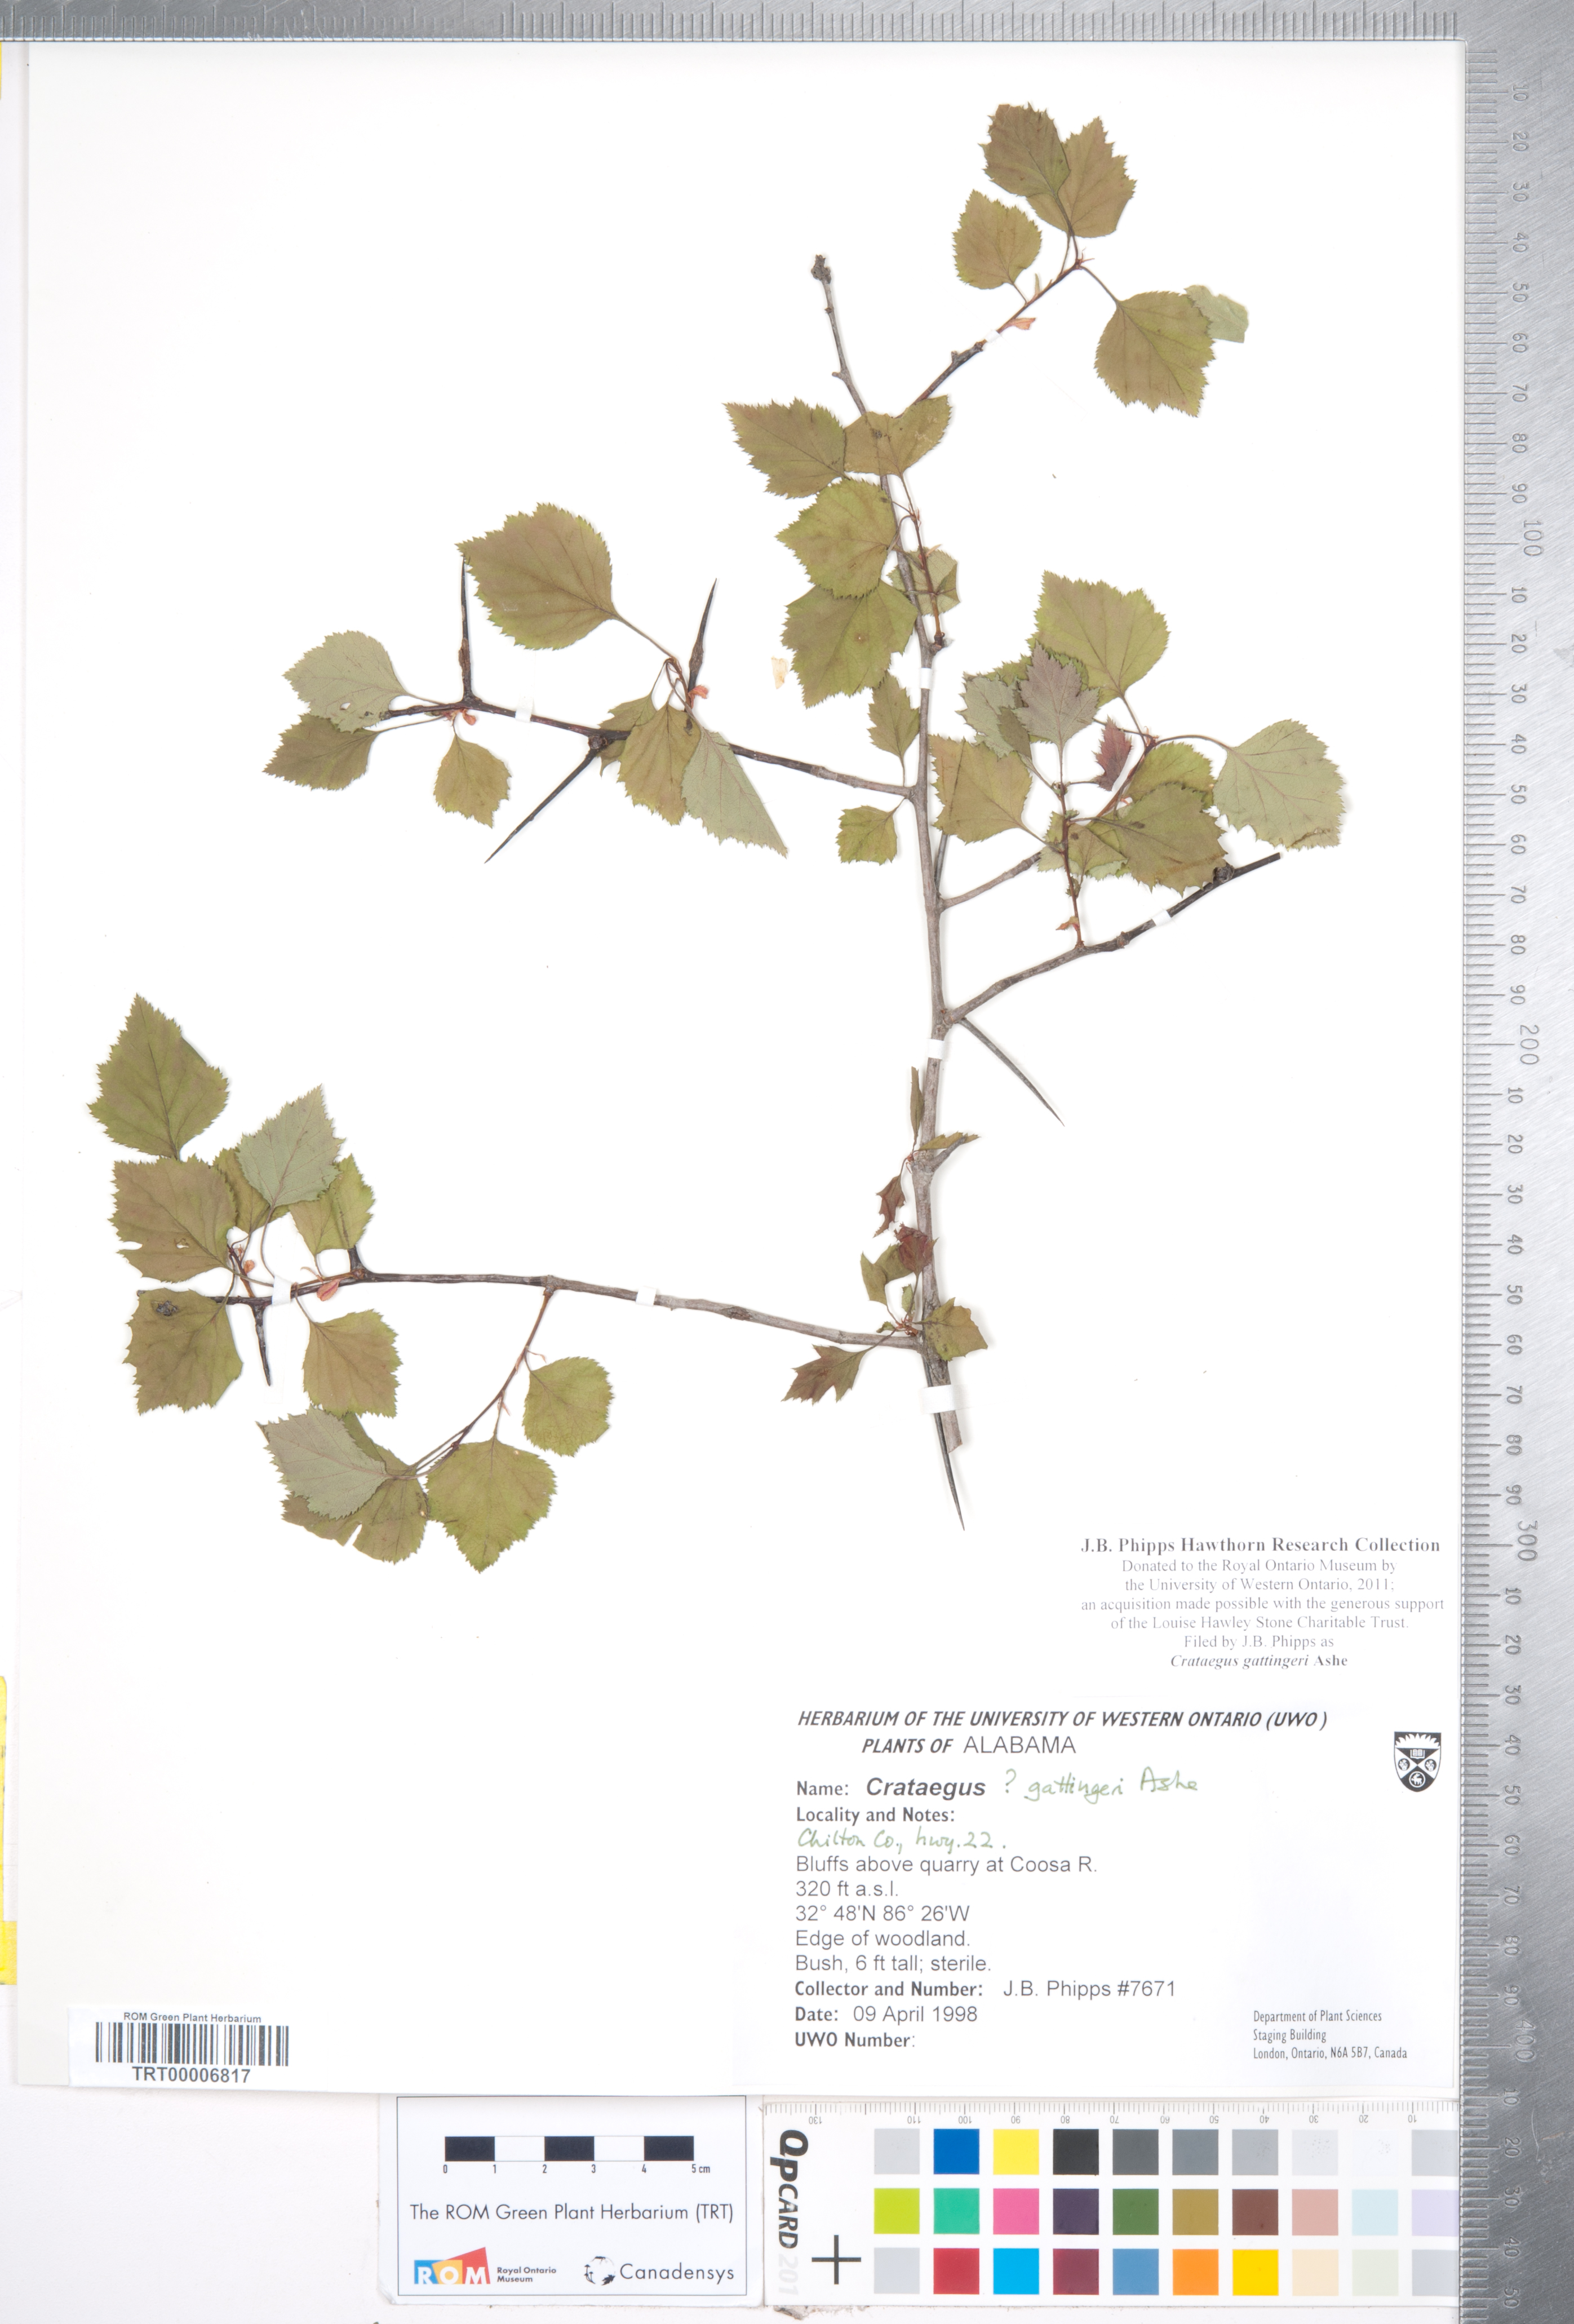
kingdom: Plantae
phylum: Tracheophyta
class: Magnoliopsida
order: Rosales
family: Rosaceae
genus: Crataegus
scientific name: Crataegus gattingeri
